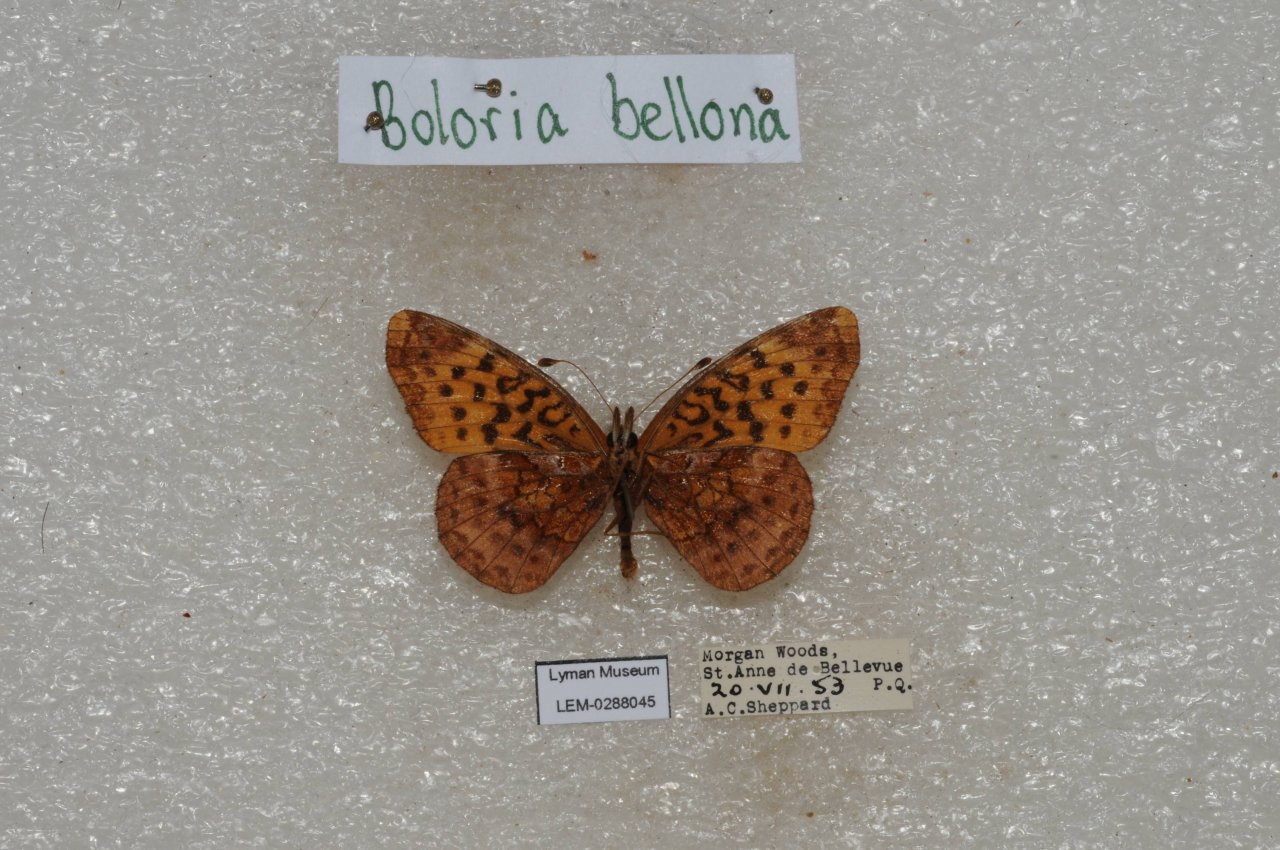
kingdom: Animalia
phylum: Arthropoda
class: Insecta
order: Lepidoptera
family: Nymphalidae
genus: Clossiana
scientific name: Clossiana toddi
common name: Meadow Fritillary
